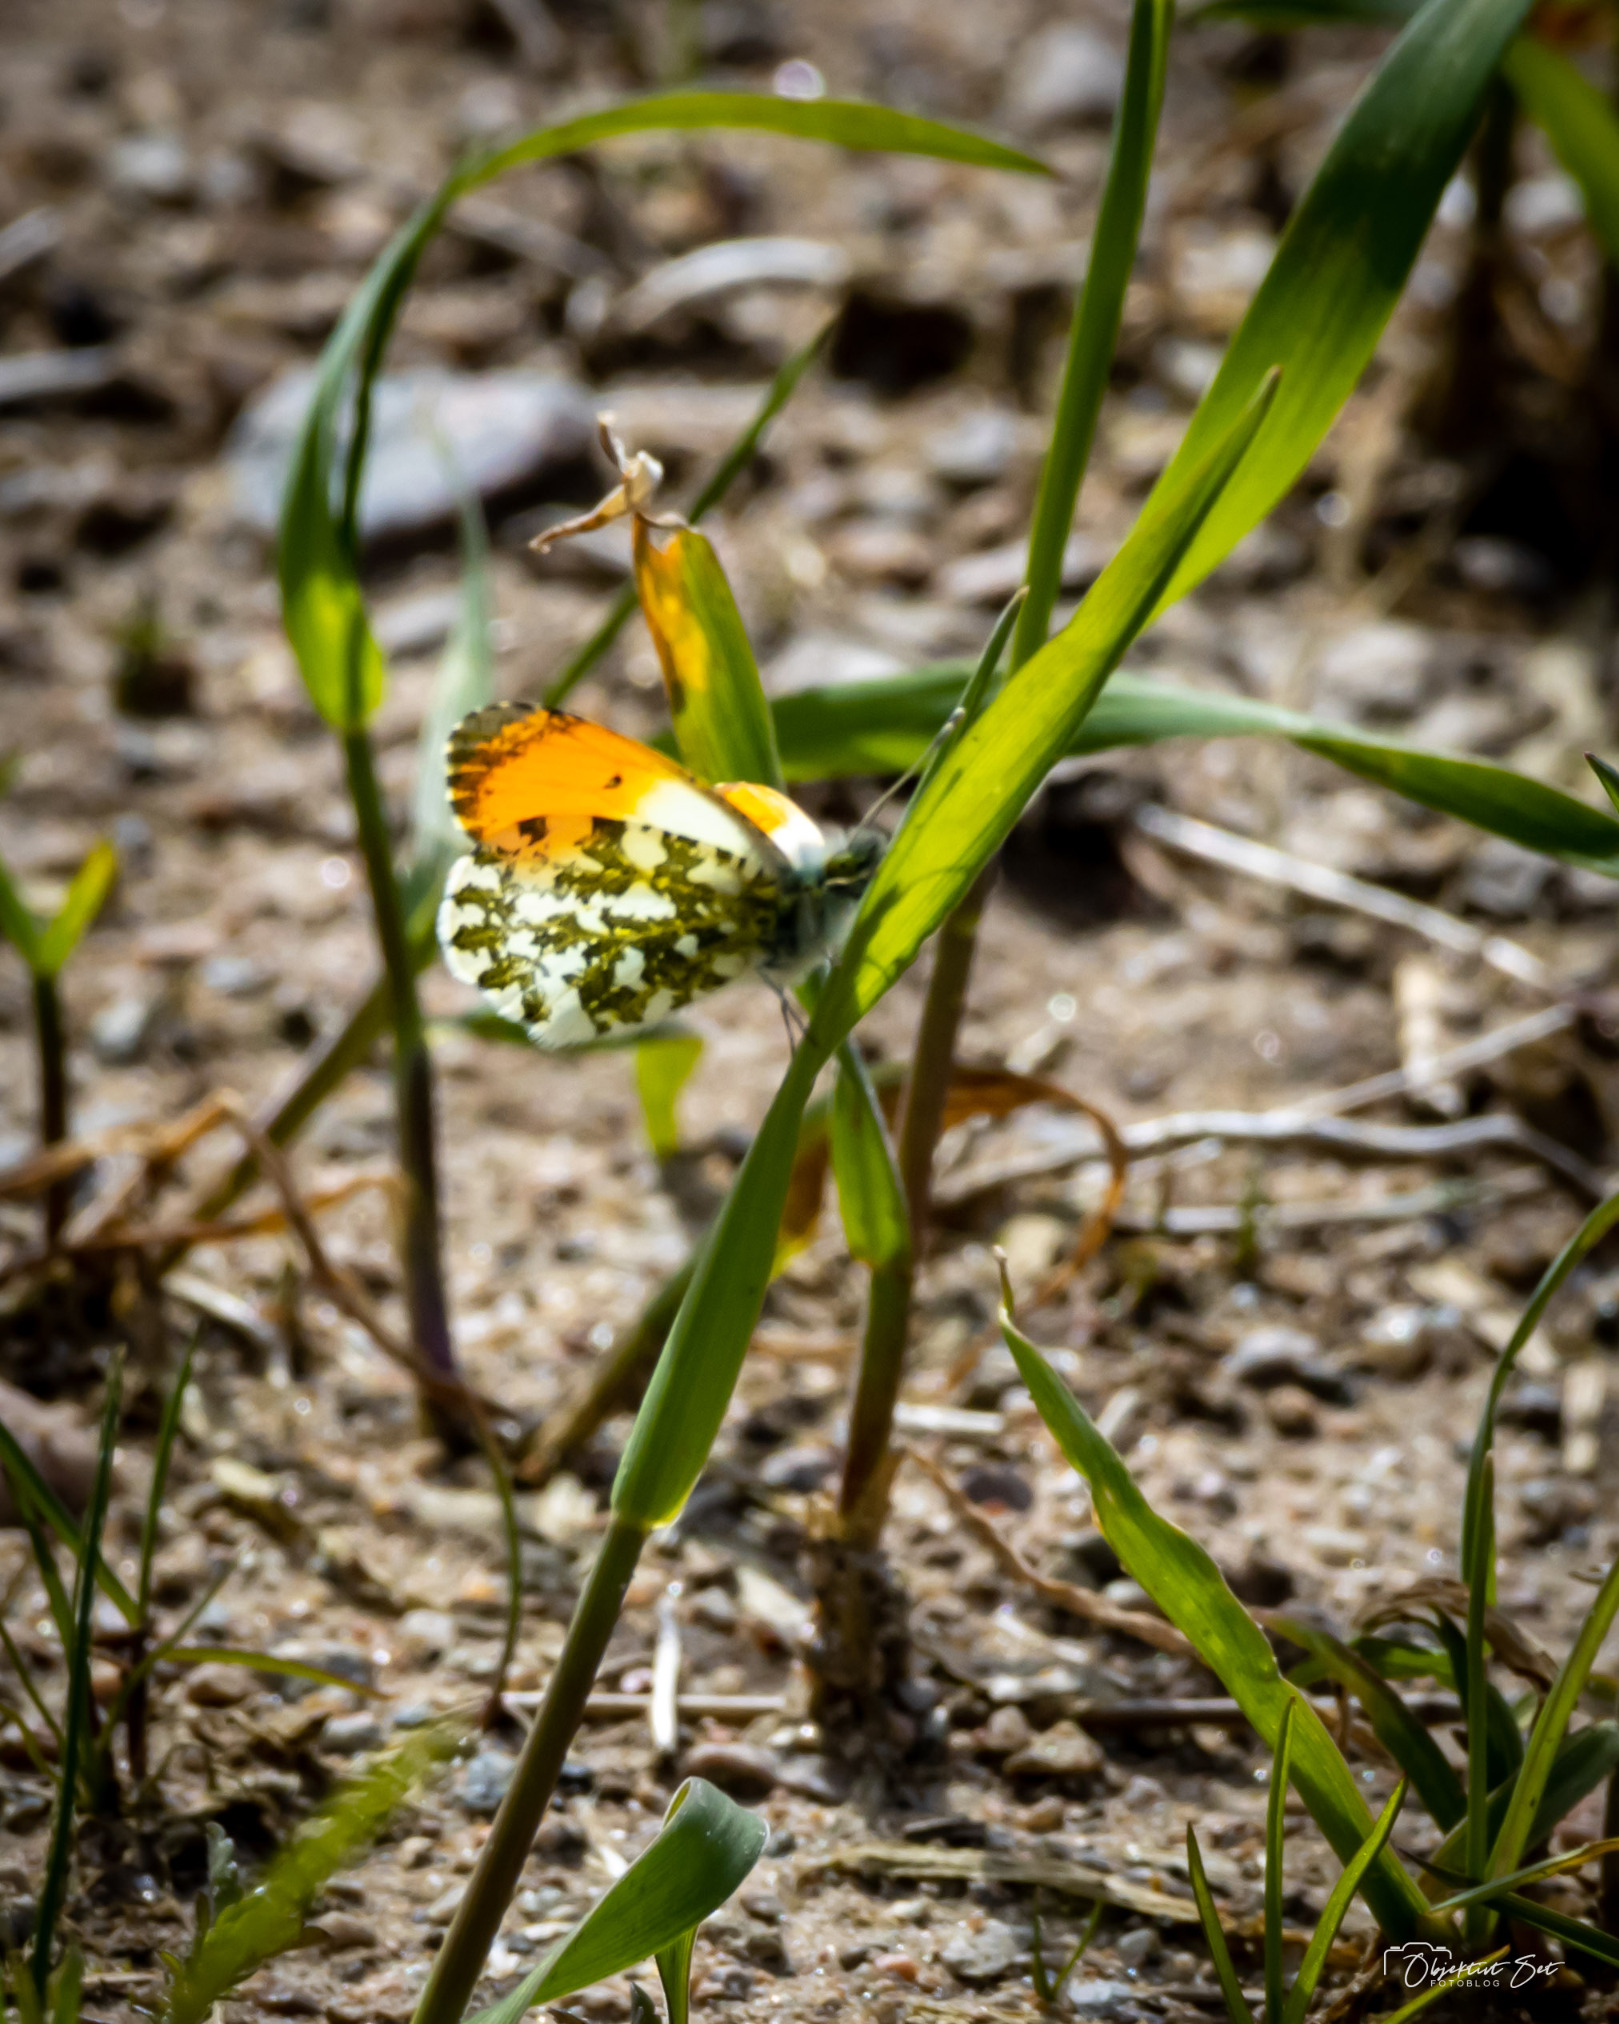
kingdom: Animalia
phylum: Arthropoda
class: Insecta
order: Lepidoptera
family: Pieridae
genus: Anthocharis
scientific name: Anthocharis cardamines
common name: Aurora
